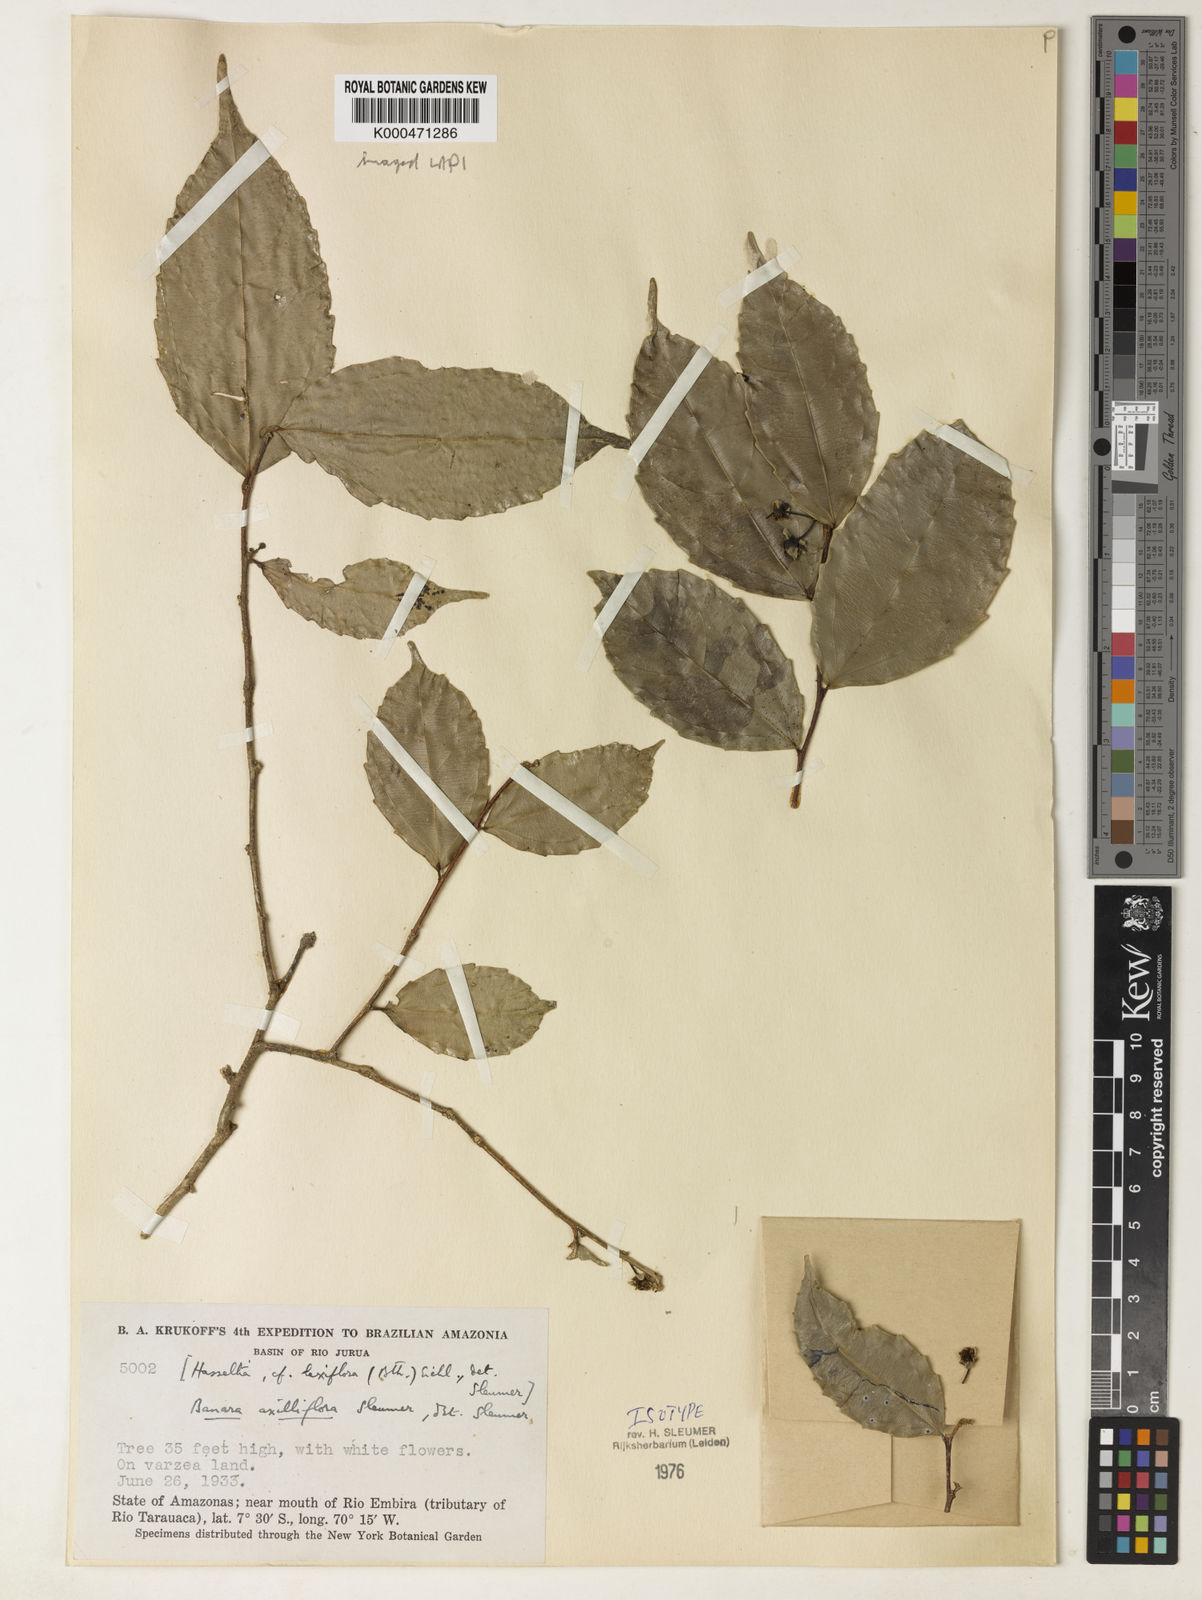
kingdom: Plantae
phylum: Tracheophyta
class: Magnoliopsida
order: Malpighiales
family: Salicaceae
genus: Banara
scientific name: Banara axilliflora
